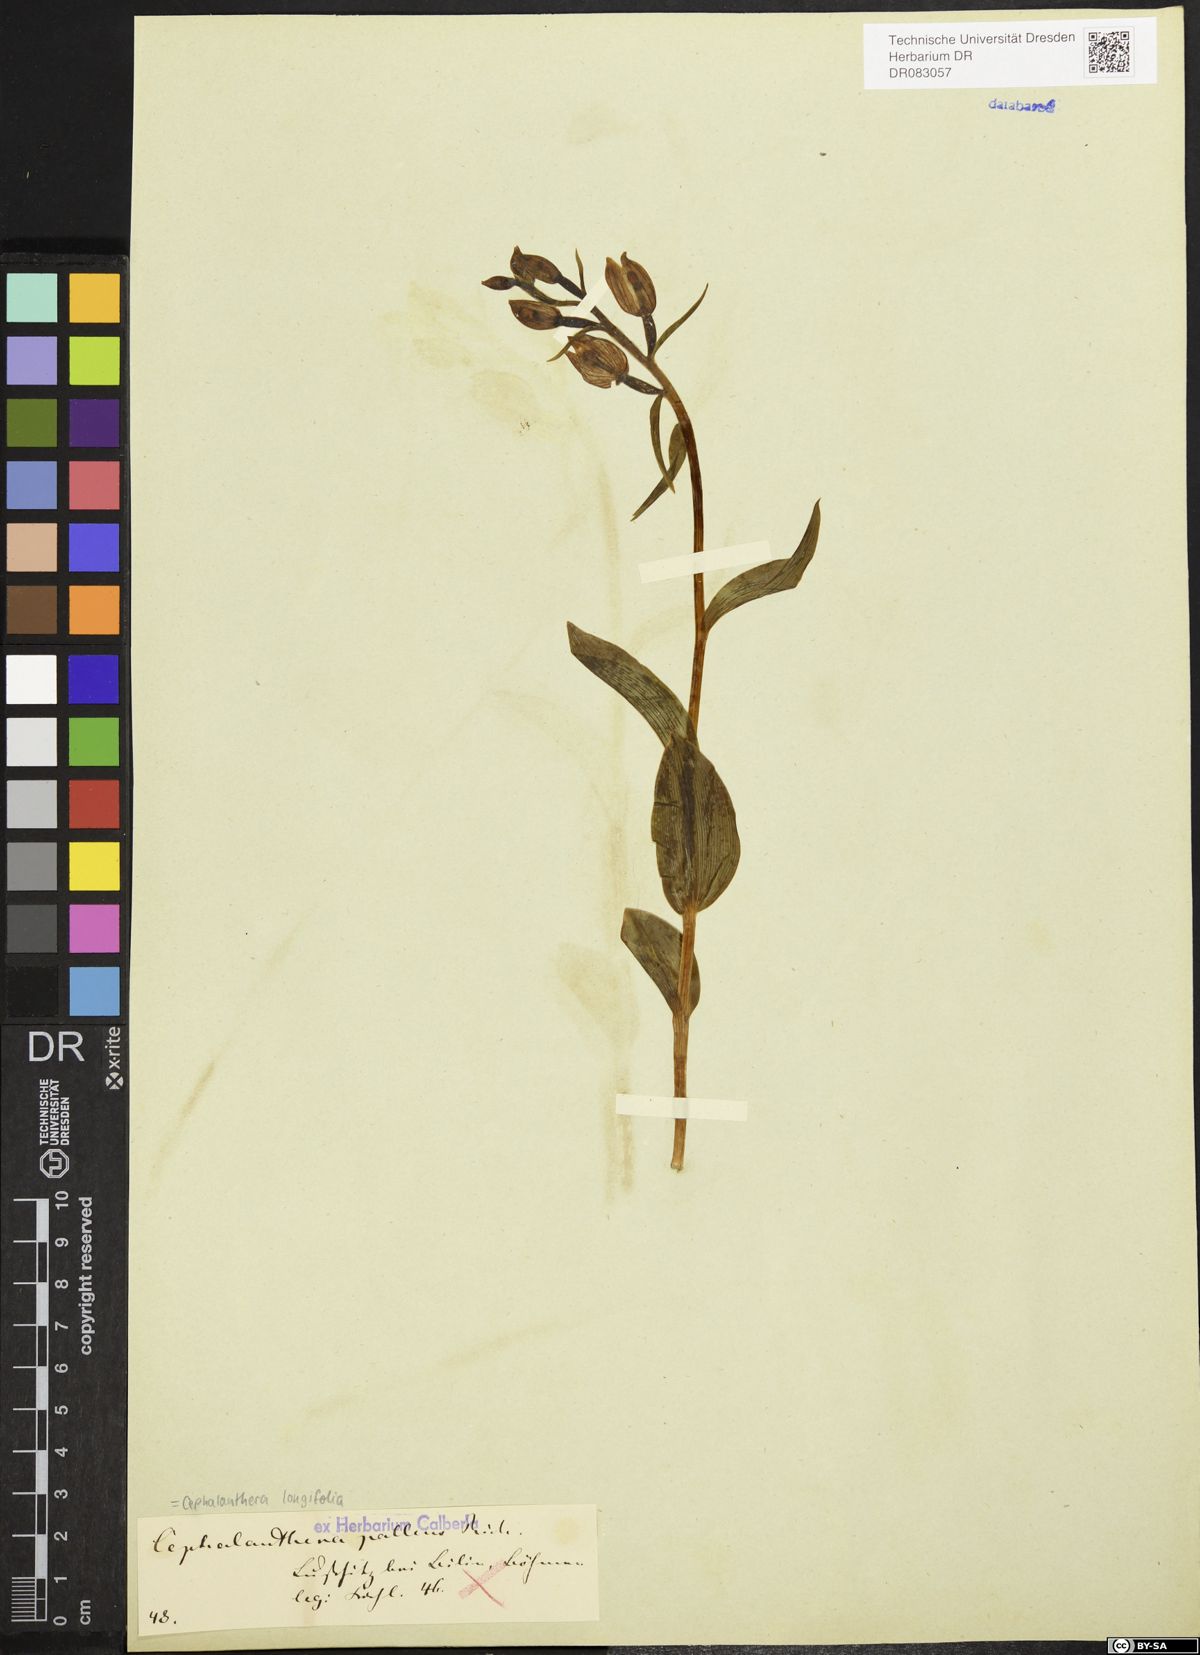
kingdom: Plantae
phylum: Tracheophyta
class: Liliopsida
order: Asparagales
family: Orchidaceae
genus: Cephalanthera
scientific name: Cephalanthera longifolia
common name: Narrow-leaved helleborine
